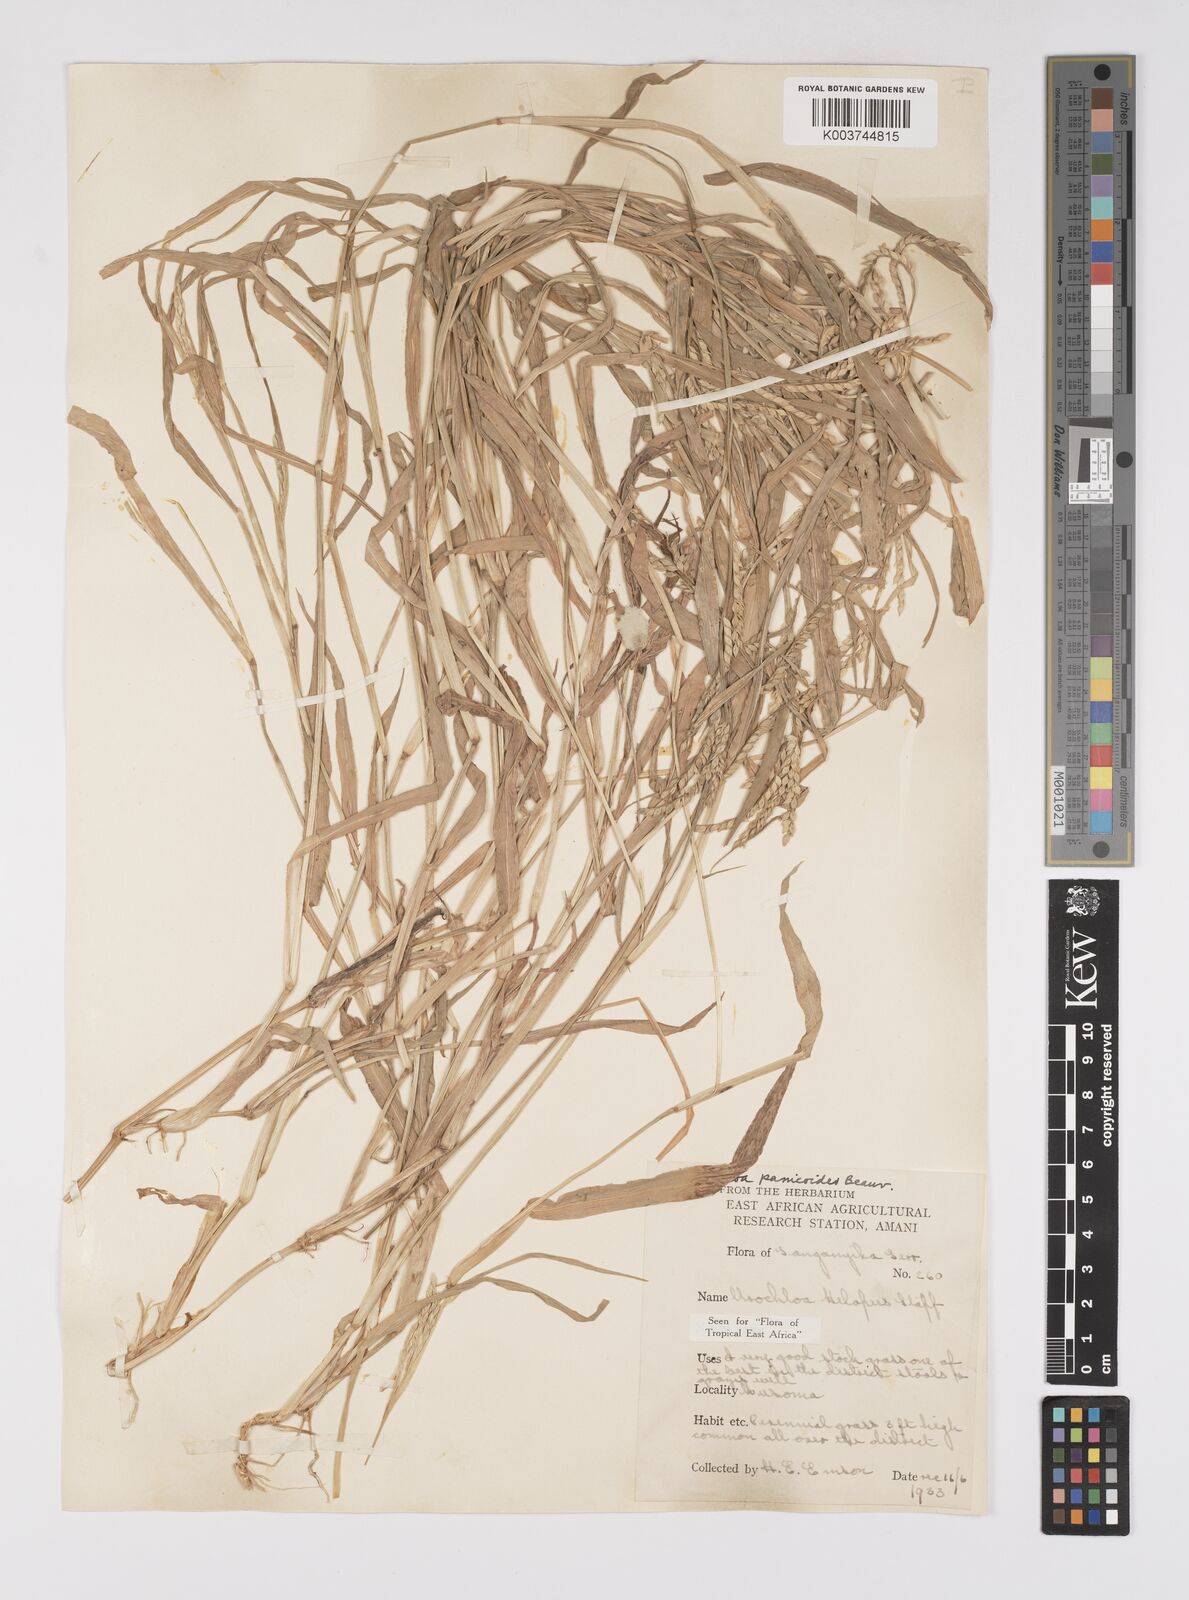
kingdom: Plantae
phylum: Tracheophyta
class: Liliopsida
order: Poales
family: Poaceae
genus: Urochloa
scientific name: Urochloa panicoides
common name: Sharp-flowered signal-grass
